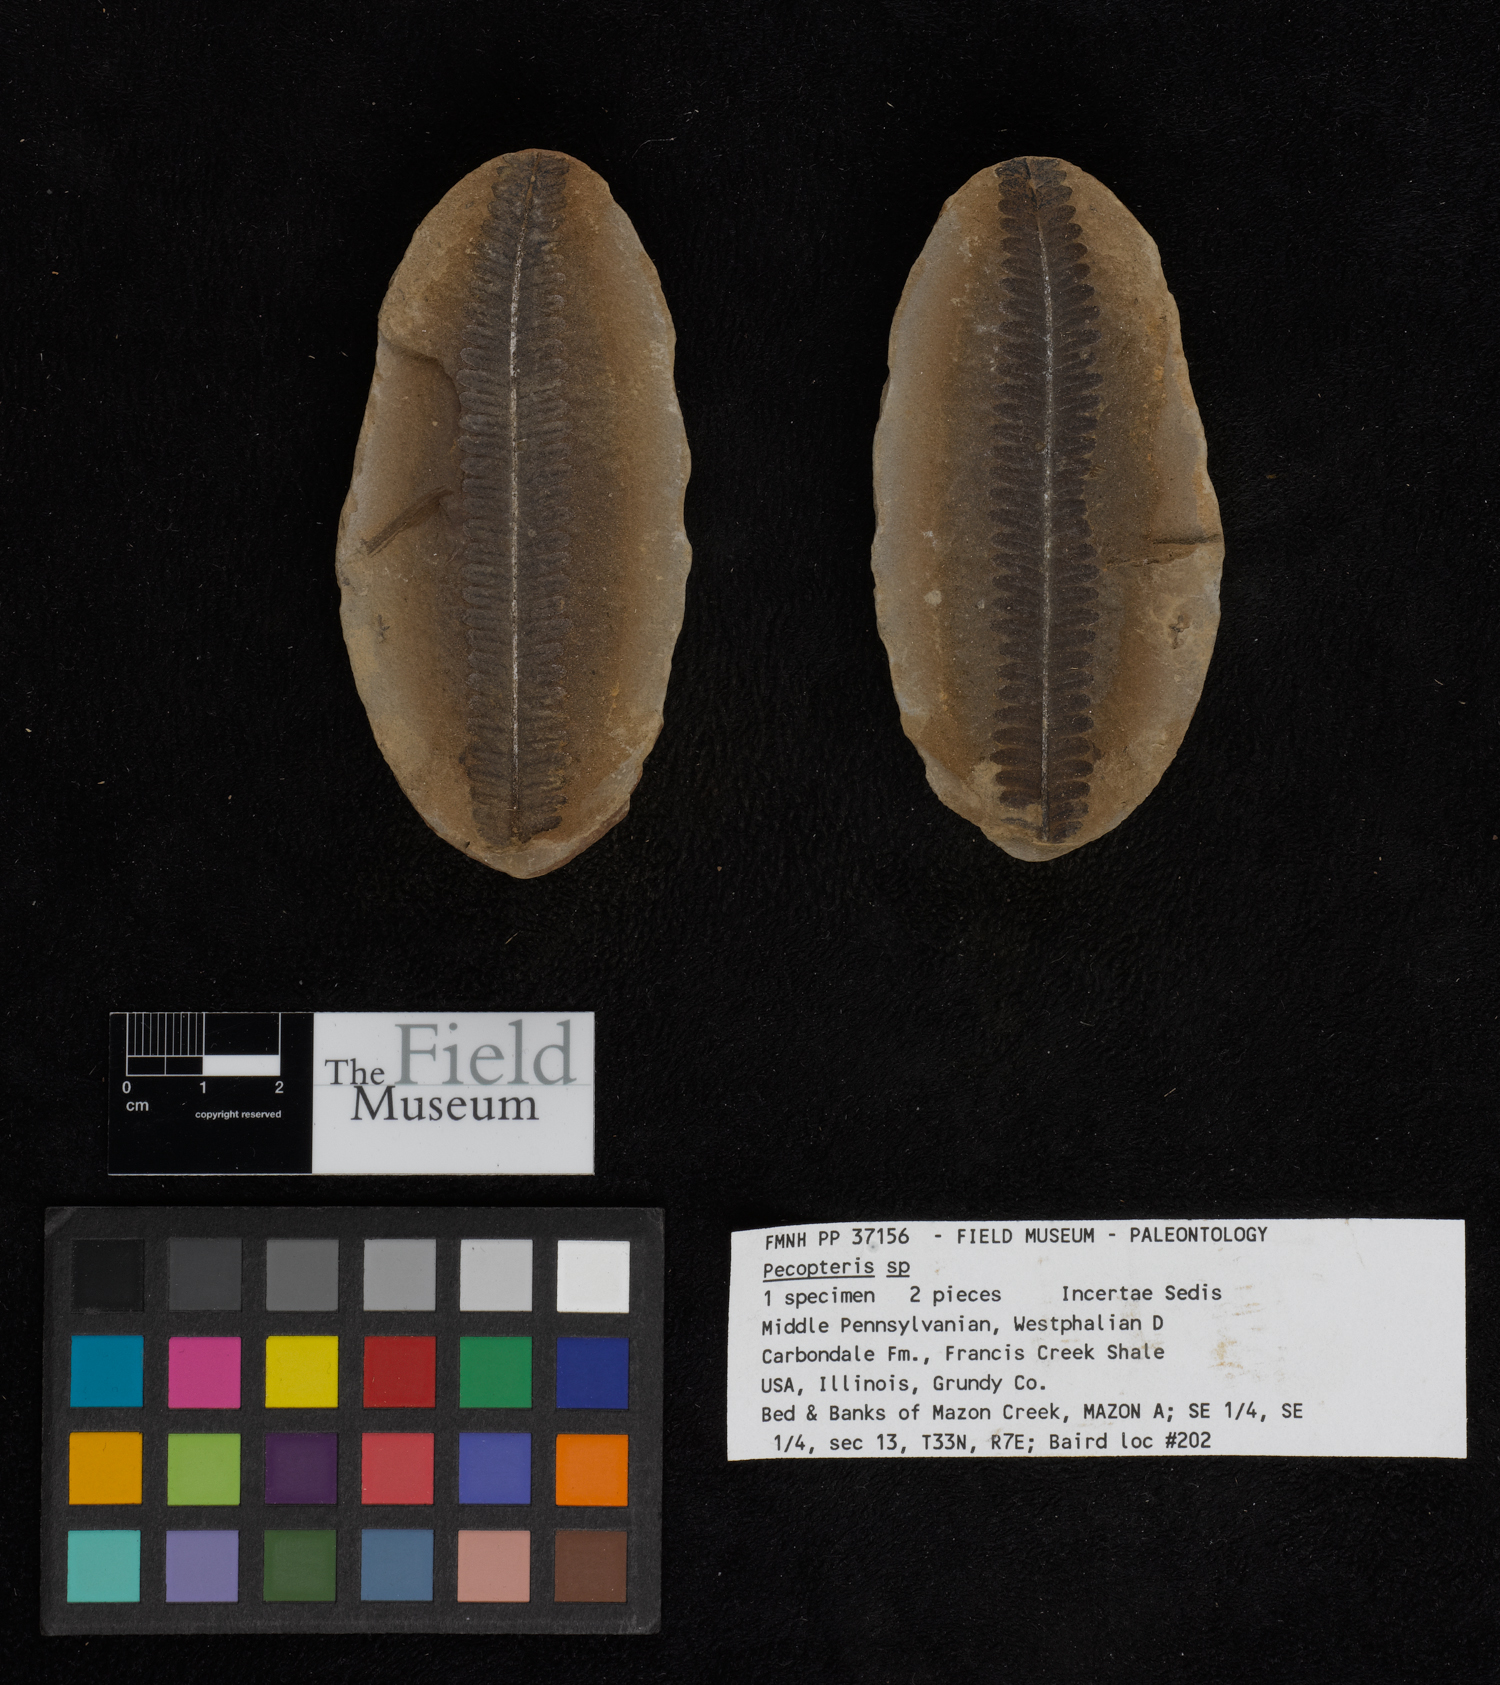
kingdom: Plantae
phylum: Tracheophyta
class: Polypodiopsida
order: Marattiales
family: Asterothecaceae
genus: Pecopteris
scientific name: Pecopteris
